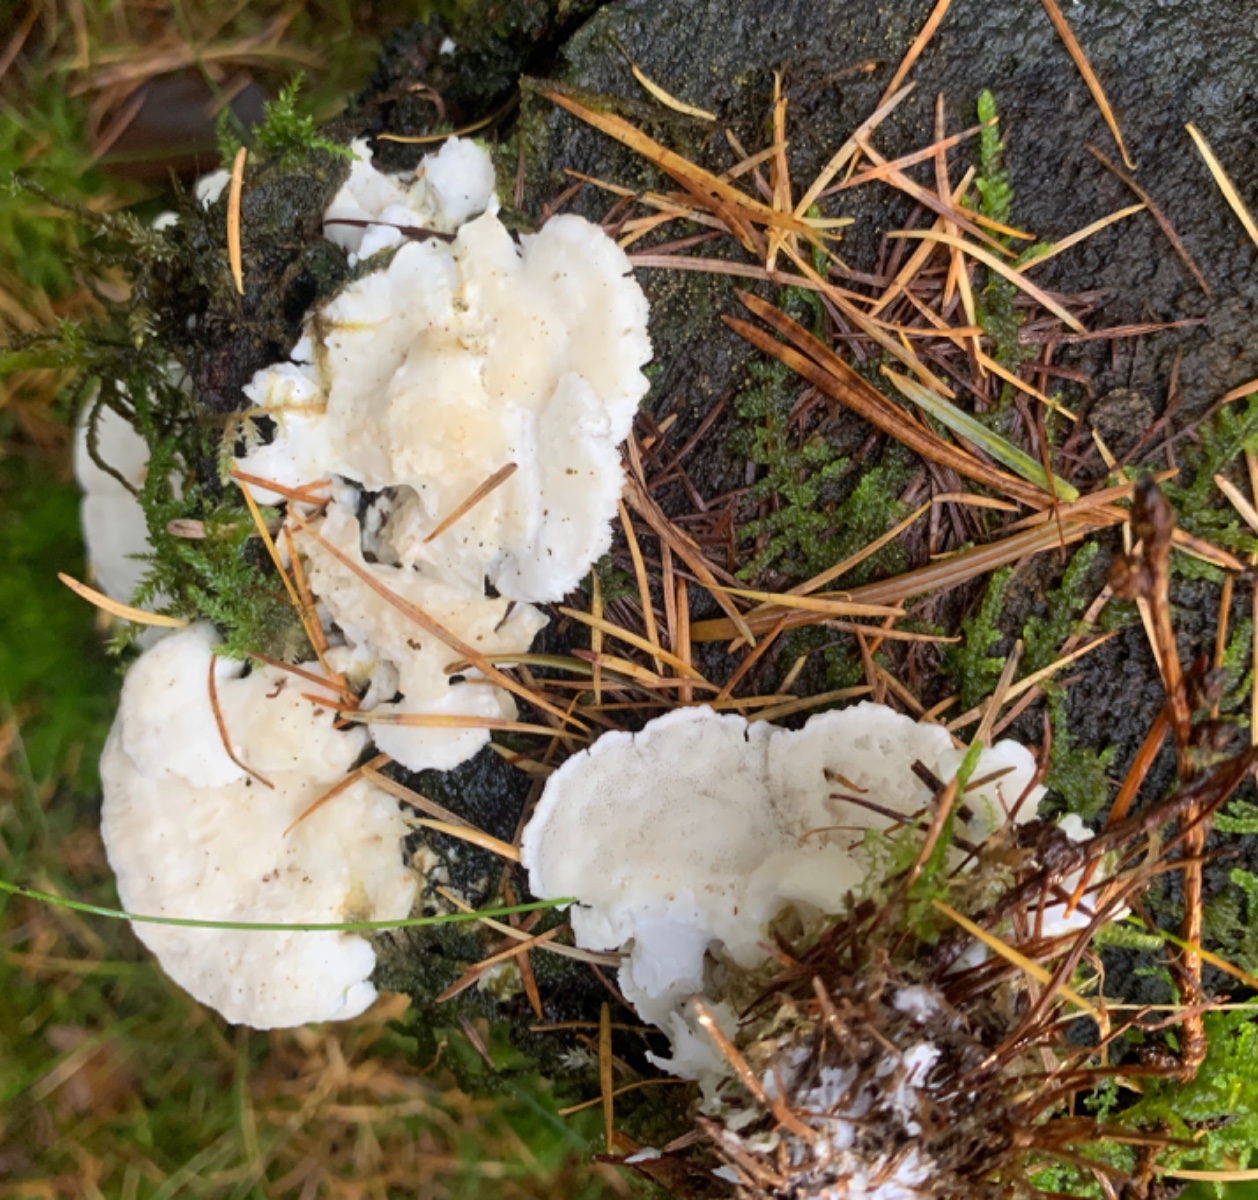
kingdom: Fungi
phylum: Basidiomycota
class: Agaricomycetes
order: Polyporales
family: Incrustoporiaceae
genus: Tyromyces
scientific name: Tyromyces lacteus
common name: mælkehvid kødporesvamp
